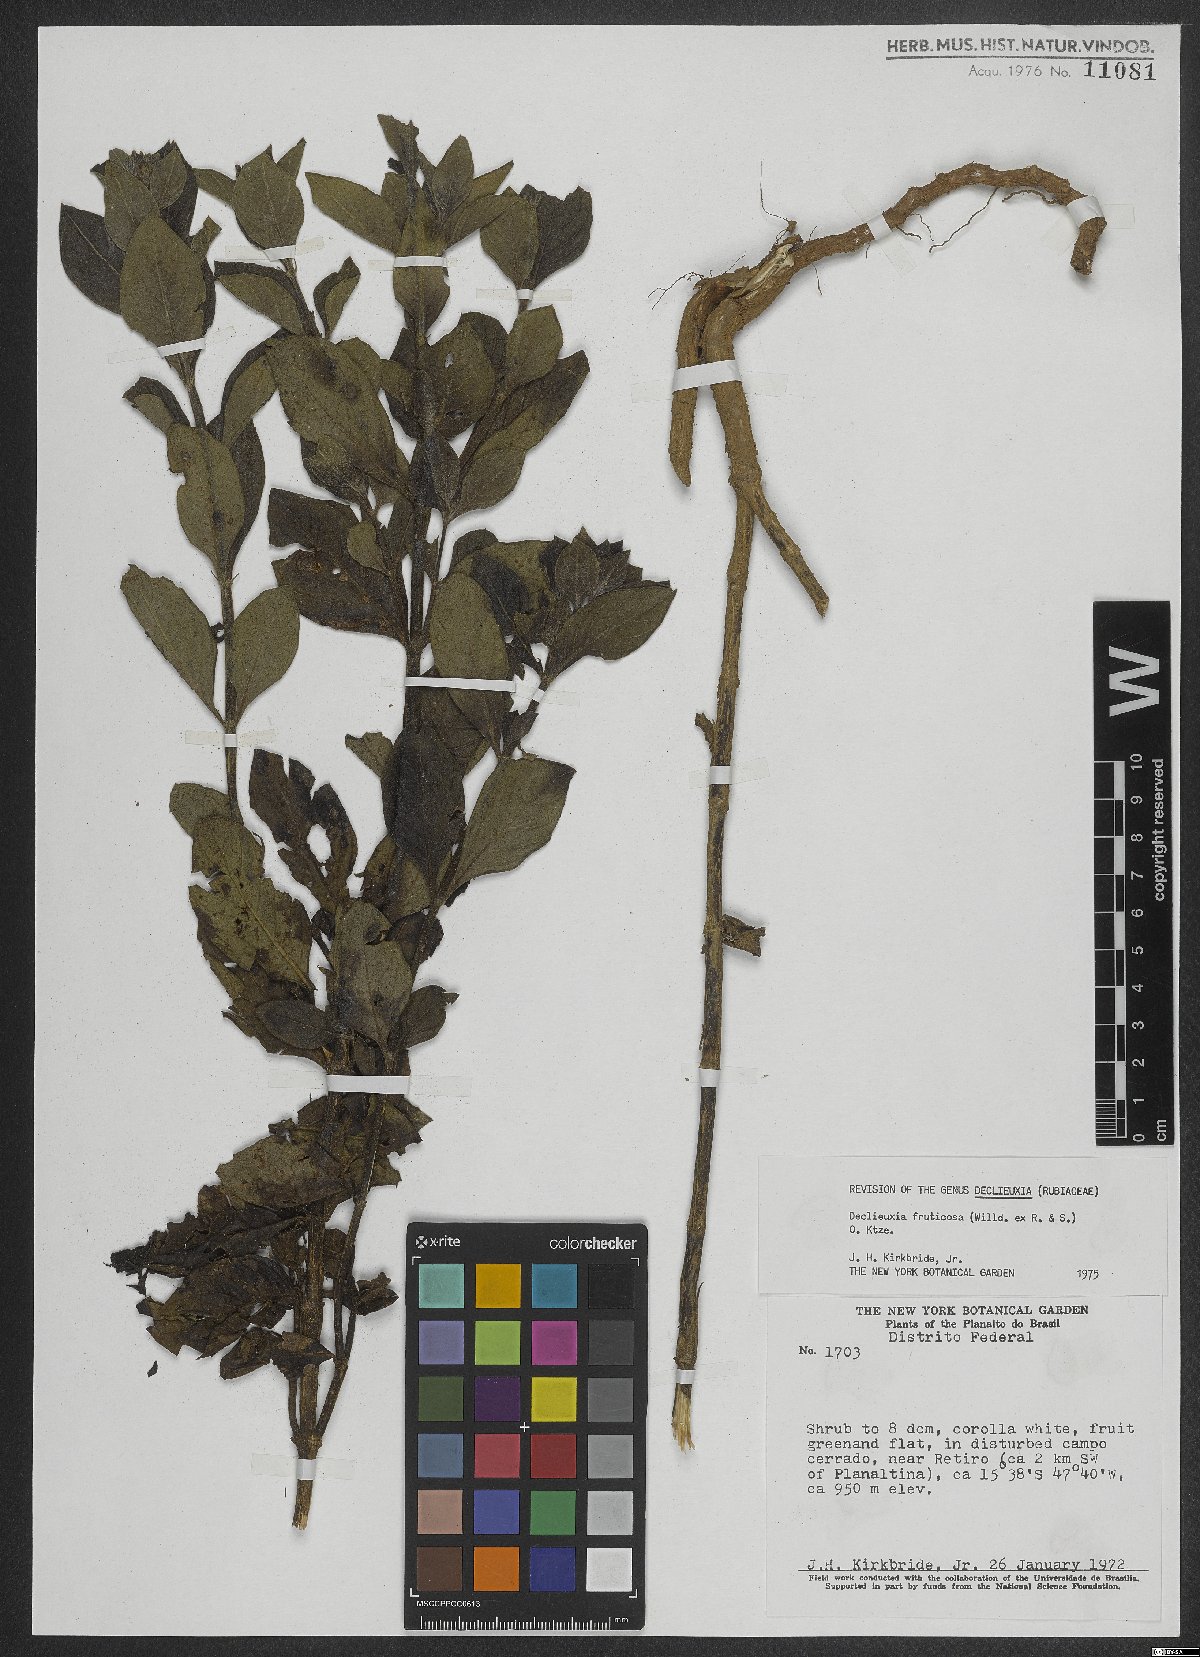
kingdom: Plantae
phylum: Tracheophyta
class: Magnoliopsida
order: Gentianales
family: Rubiaceae
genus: Declieuxia
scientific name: Declieuxia fruticosa
